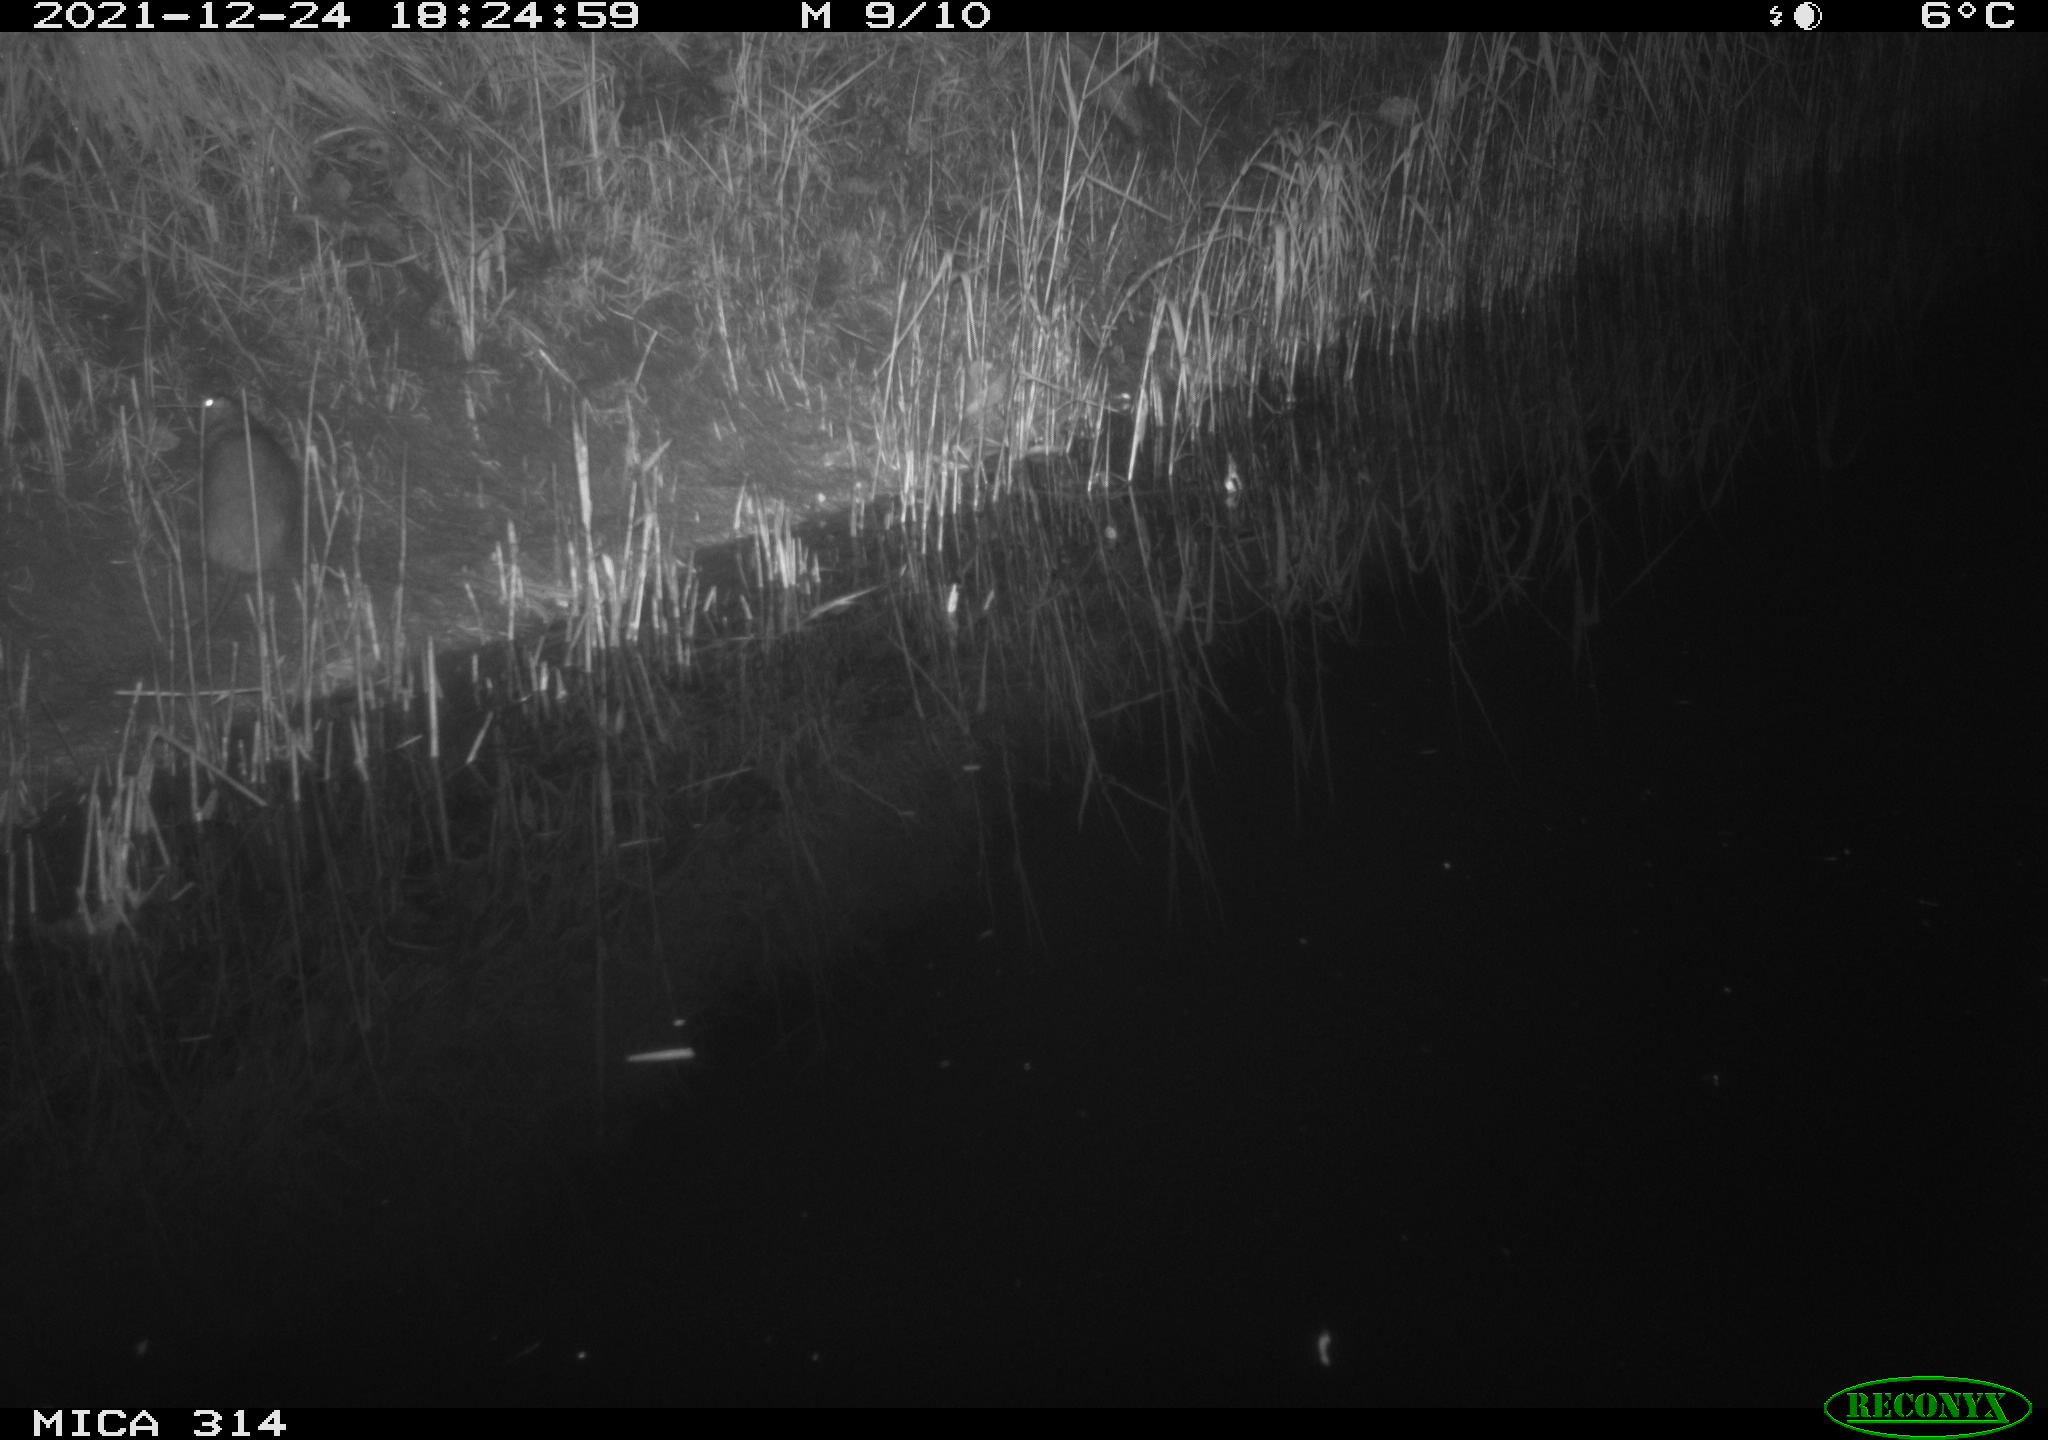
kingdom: Animalia
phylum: Chordata
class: Mammalia
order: Rodentia
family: Muridae
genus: Rattus
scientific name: Rattus norvegicus
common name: Brown rat
